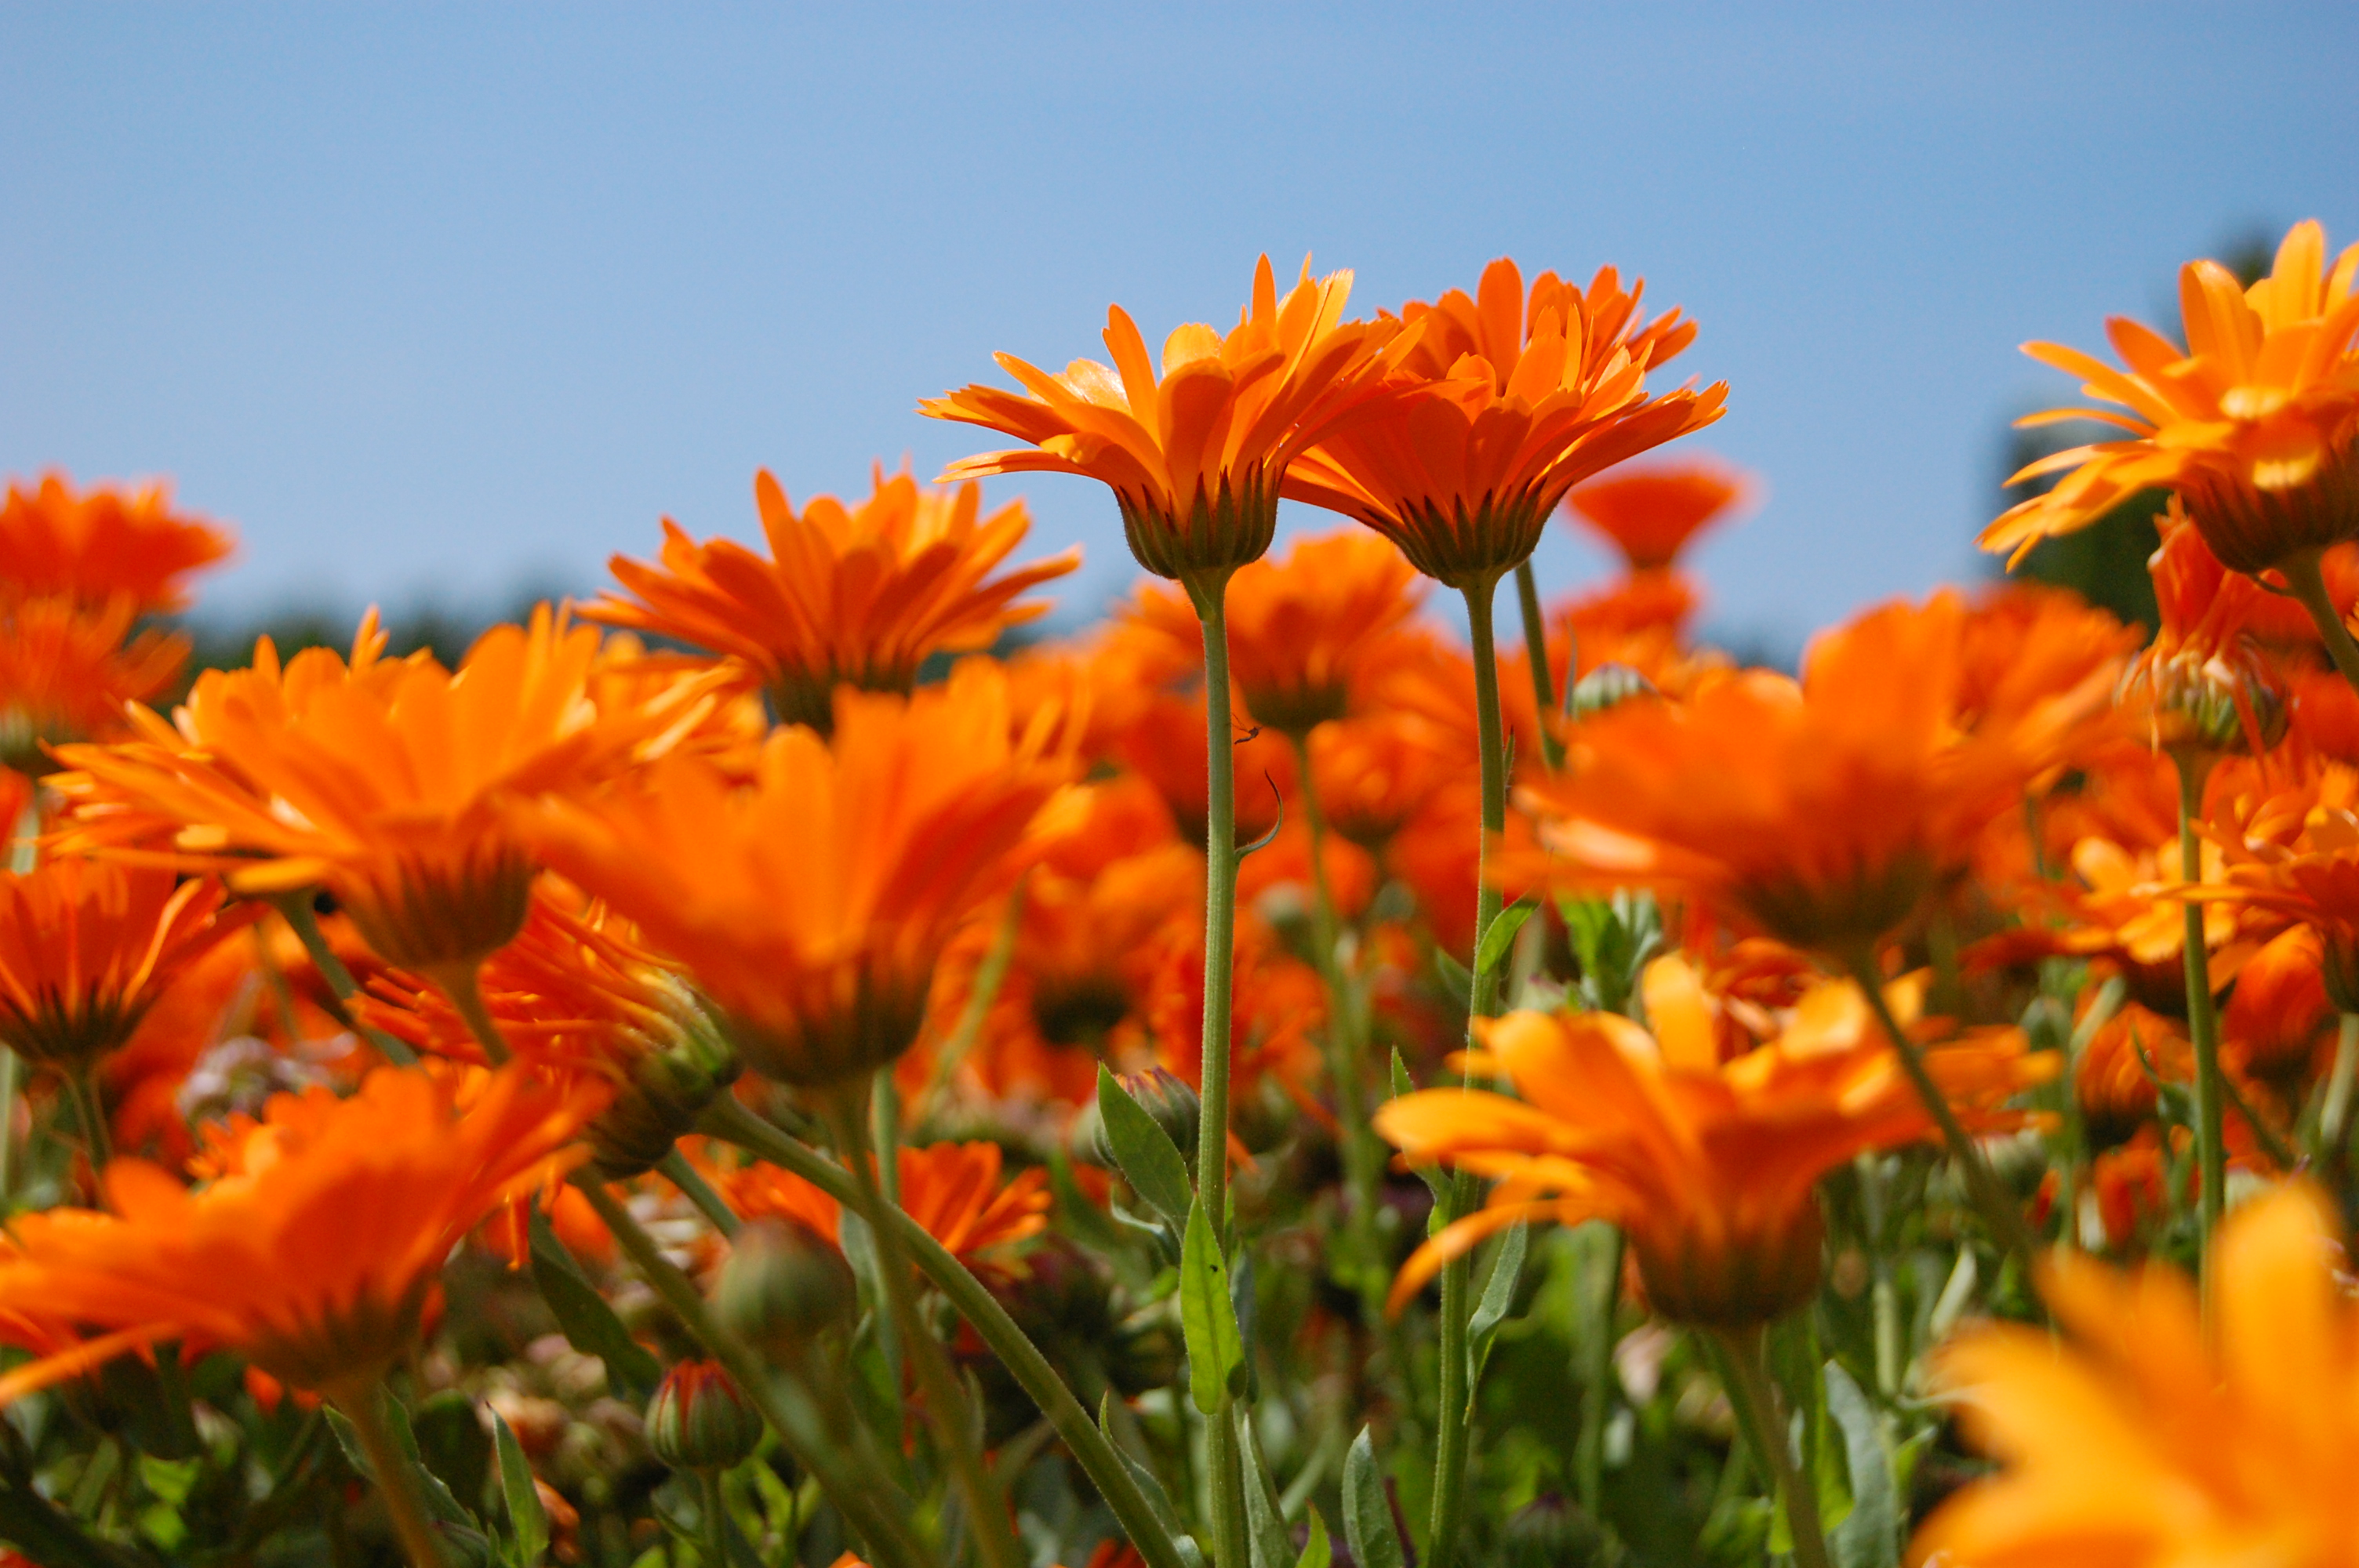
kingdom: Plantae
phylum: Tracheophyta
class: Magnoliopsida
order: Asterales
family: Asteraceae
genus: Calendula
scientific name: Calendula officinalis
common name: Pot marigold
